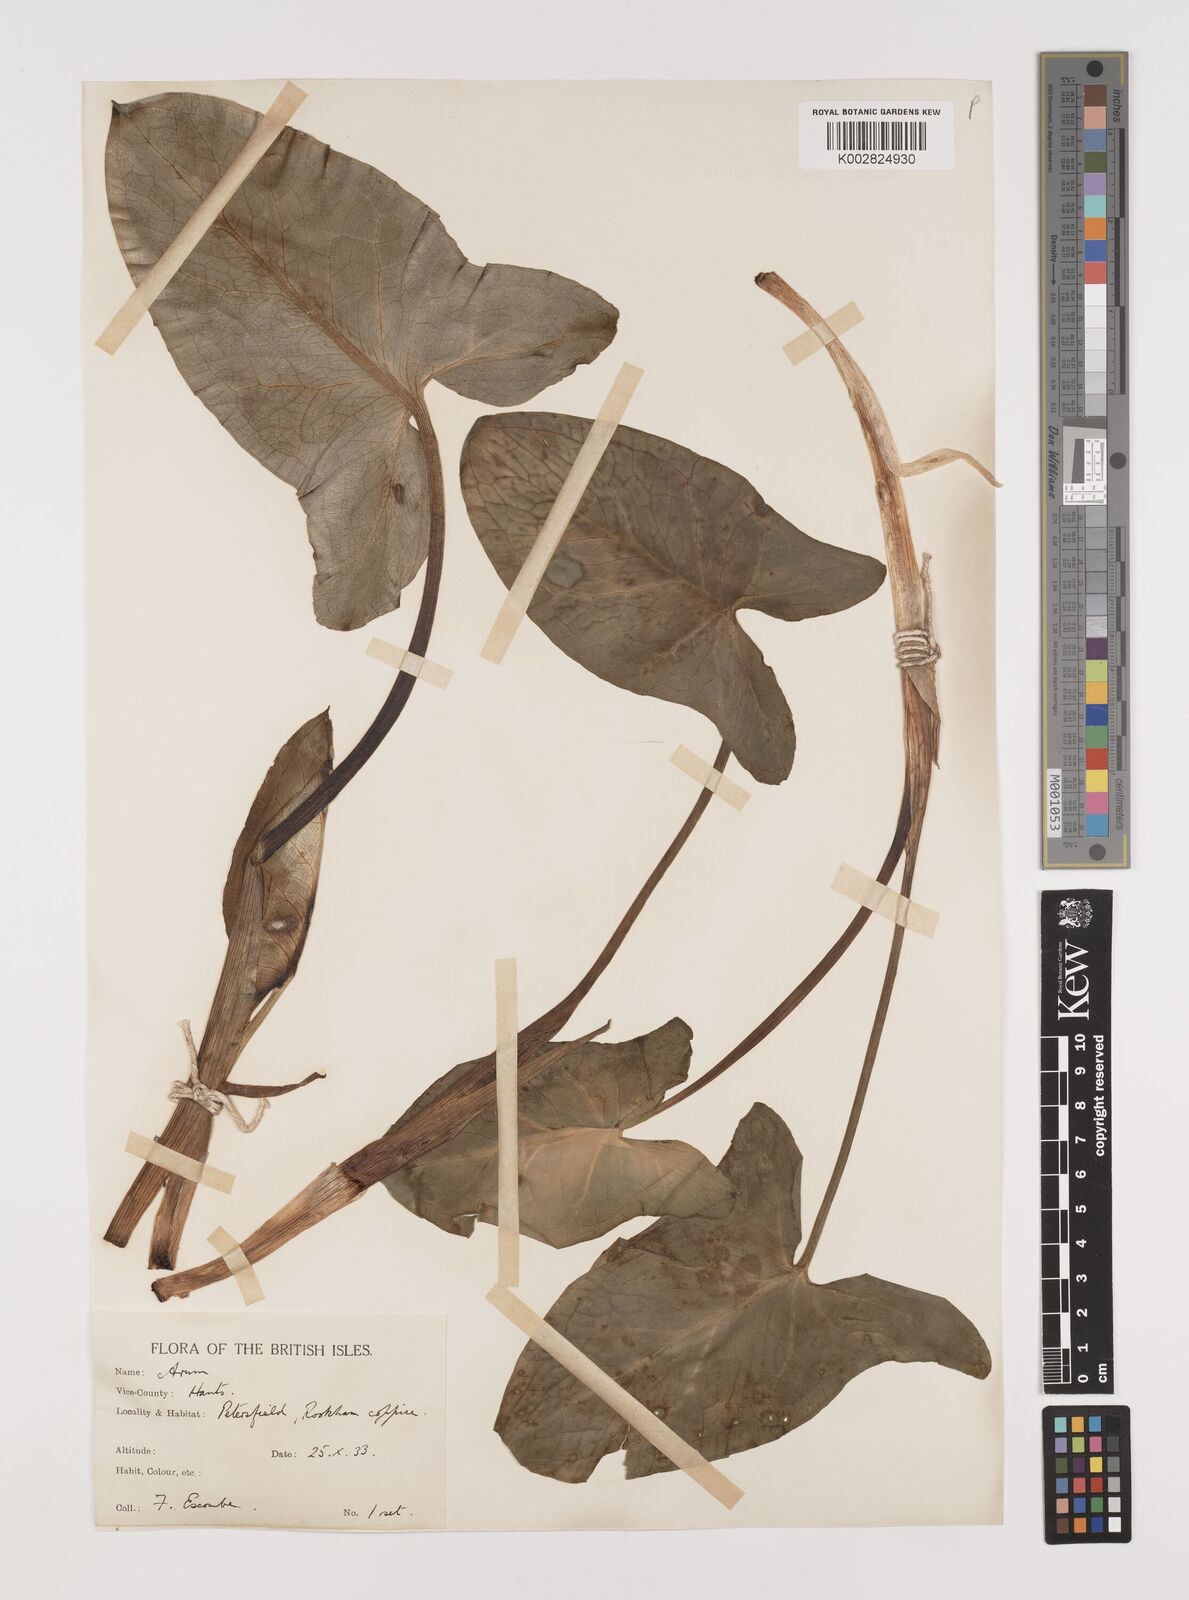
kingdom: Plantae
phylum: Tracheophyta
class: Liliopsida
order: Alismatales
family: Araceae
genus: Arum
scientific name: Arum italicum
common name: Italian lords-and-ladies
